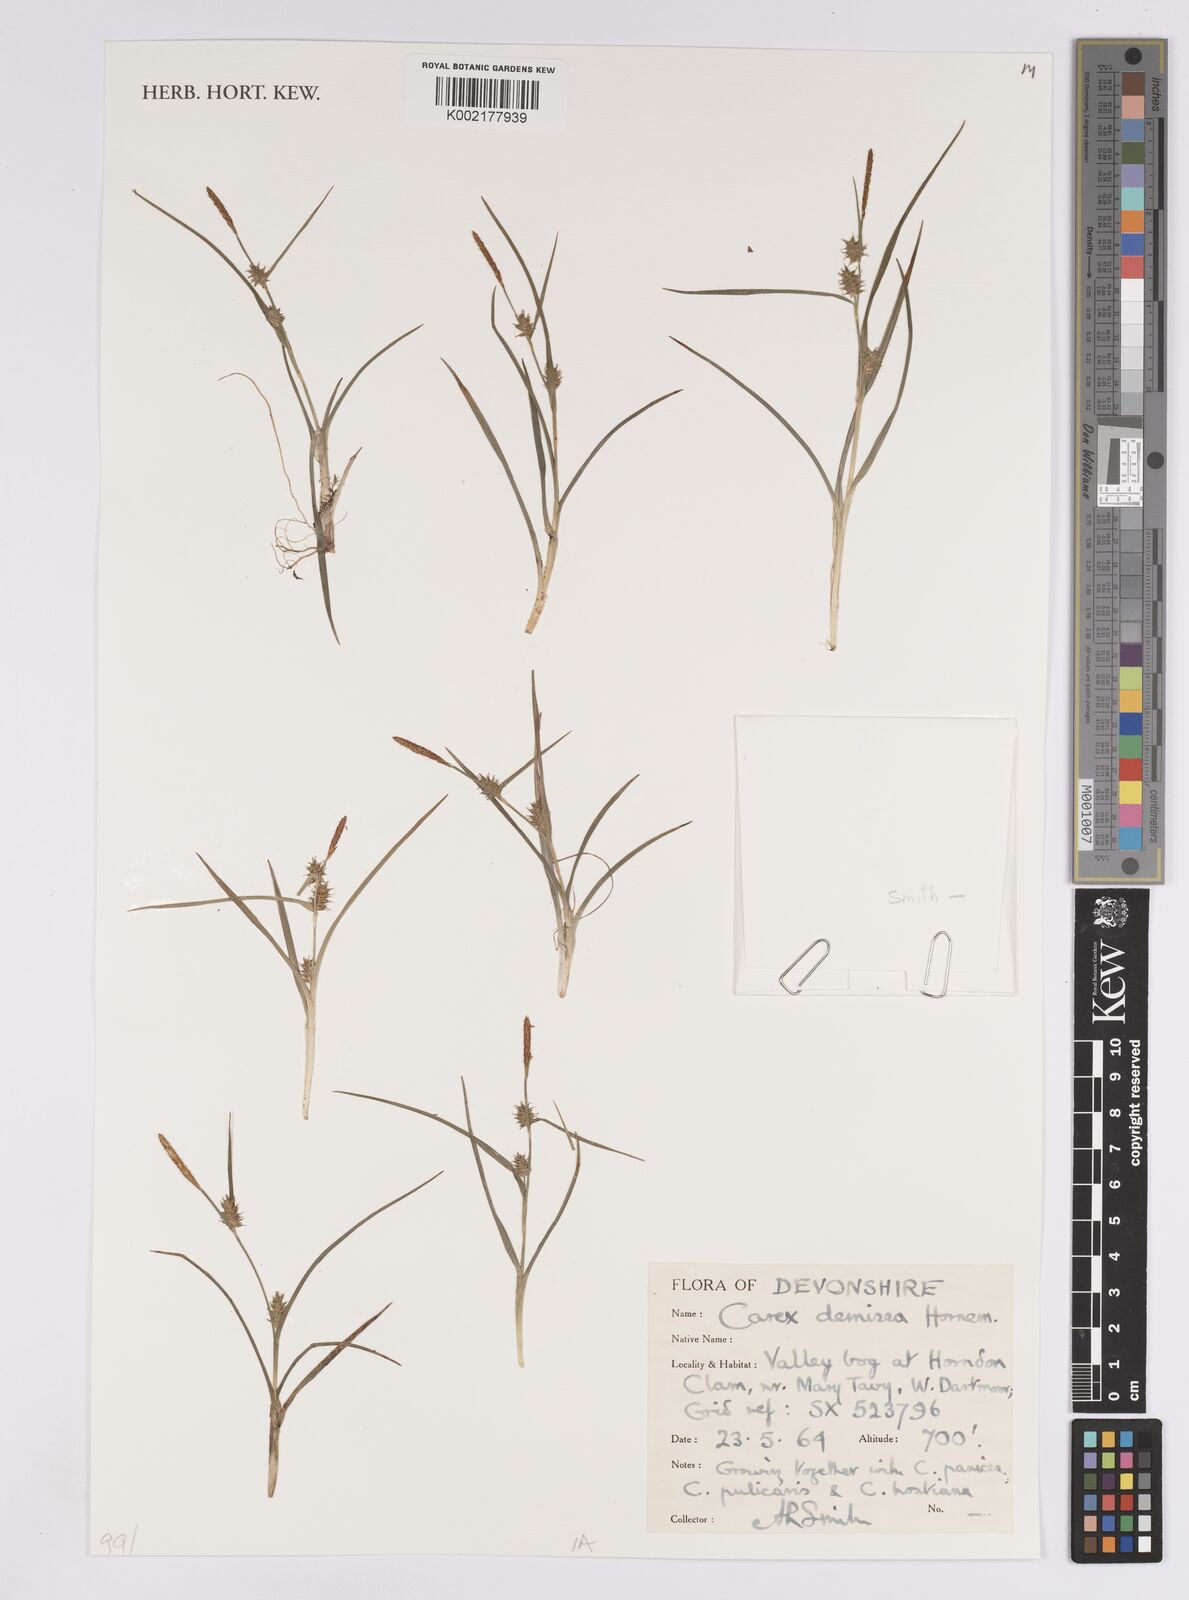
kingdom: Plantae
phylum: Tracheophyta
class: Liliopsida
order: Poales
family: Cyperaceae
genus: Carex
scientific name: Carex demissa
